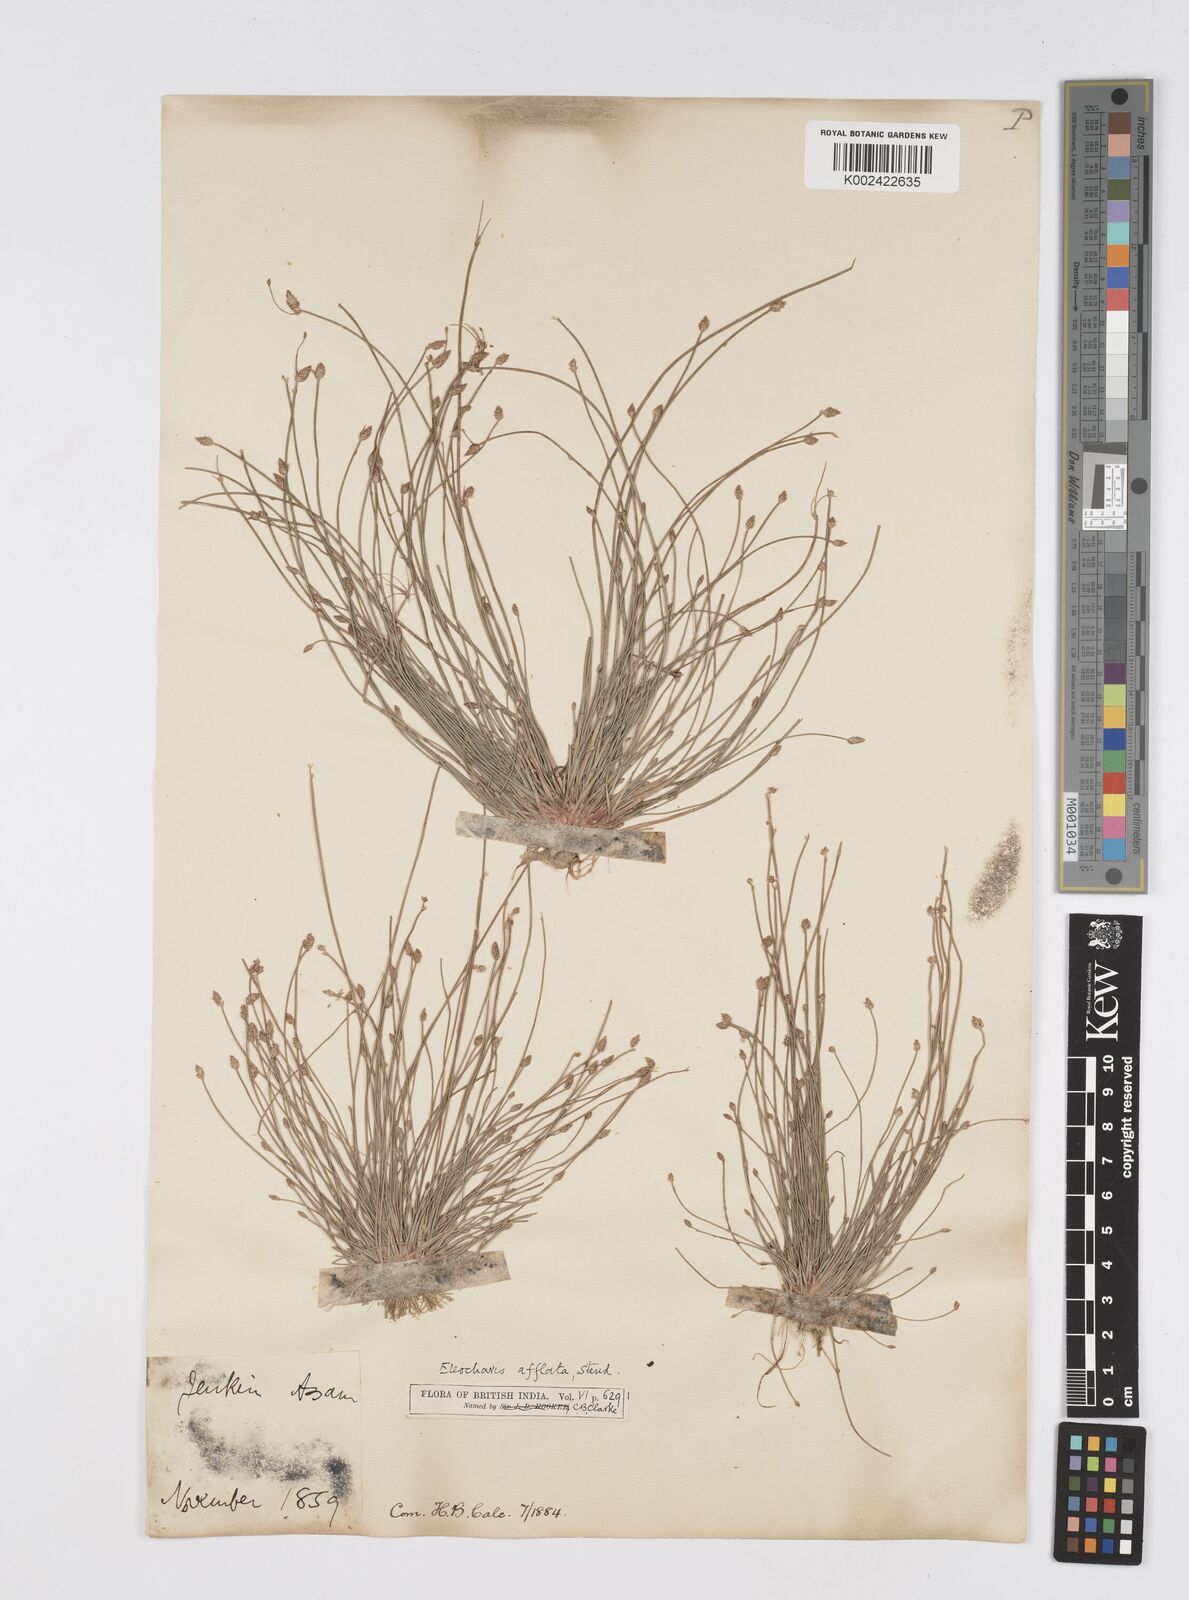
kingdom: Plantae
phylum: Tracheophyta
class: Liliopsida
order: Poales
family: Cyperaceae
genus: Eleocharis
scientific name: Eleocharis pellucida
